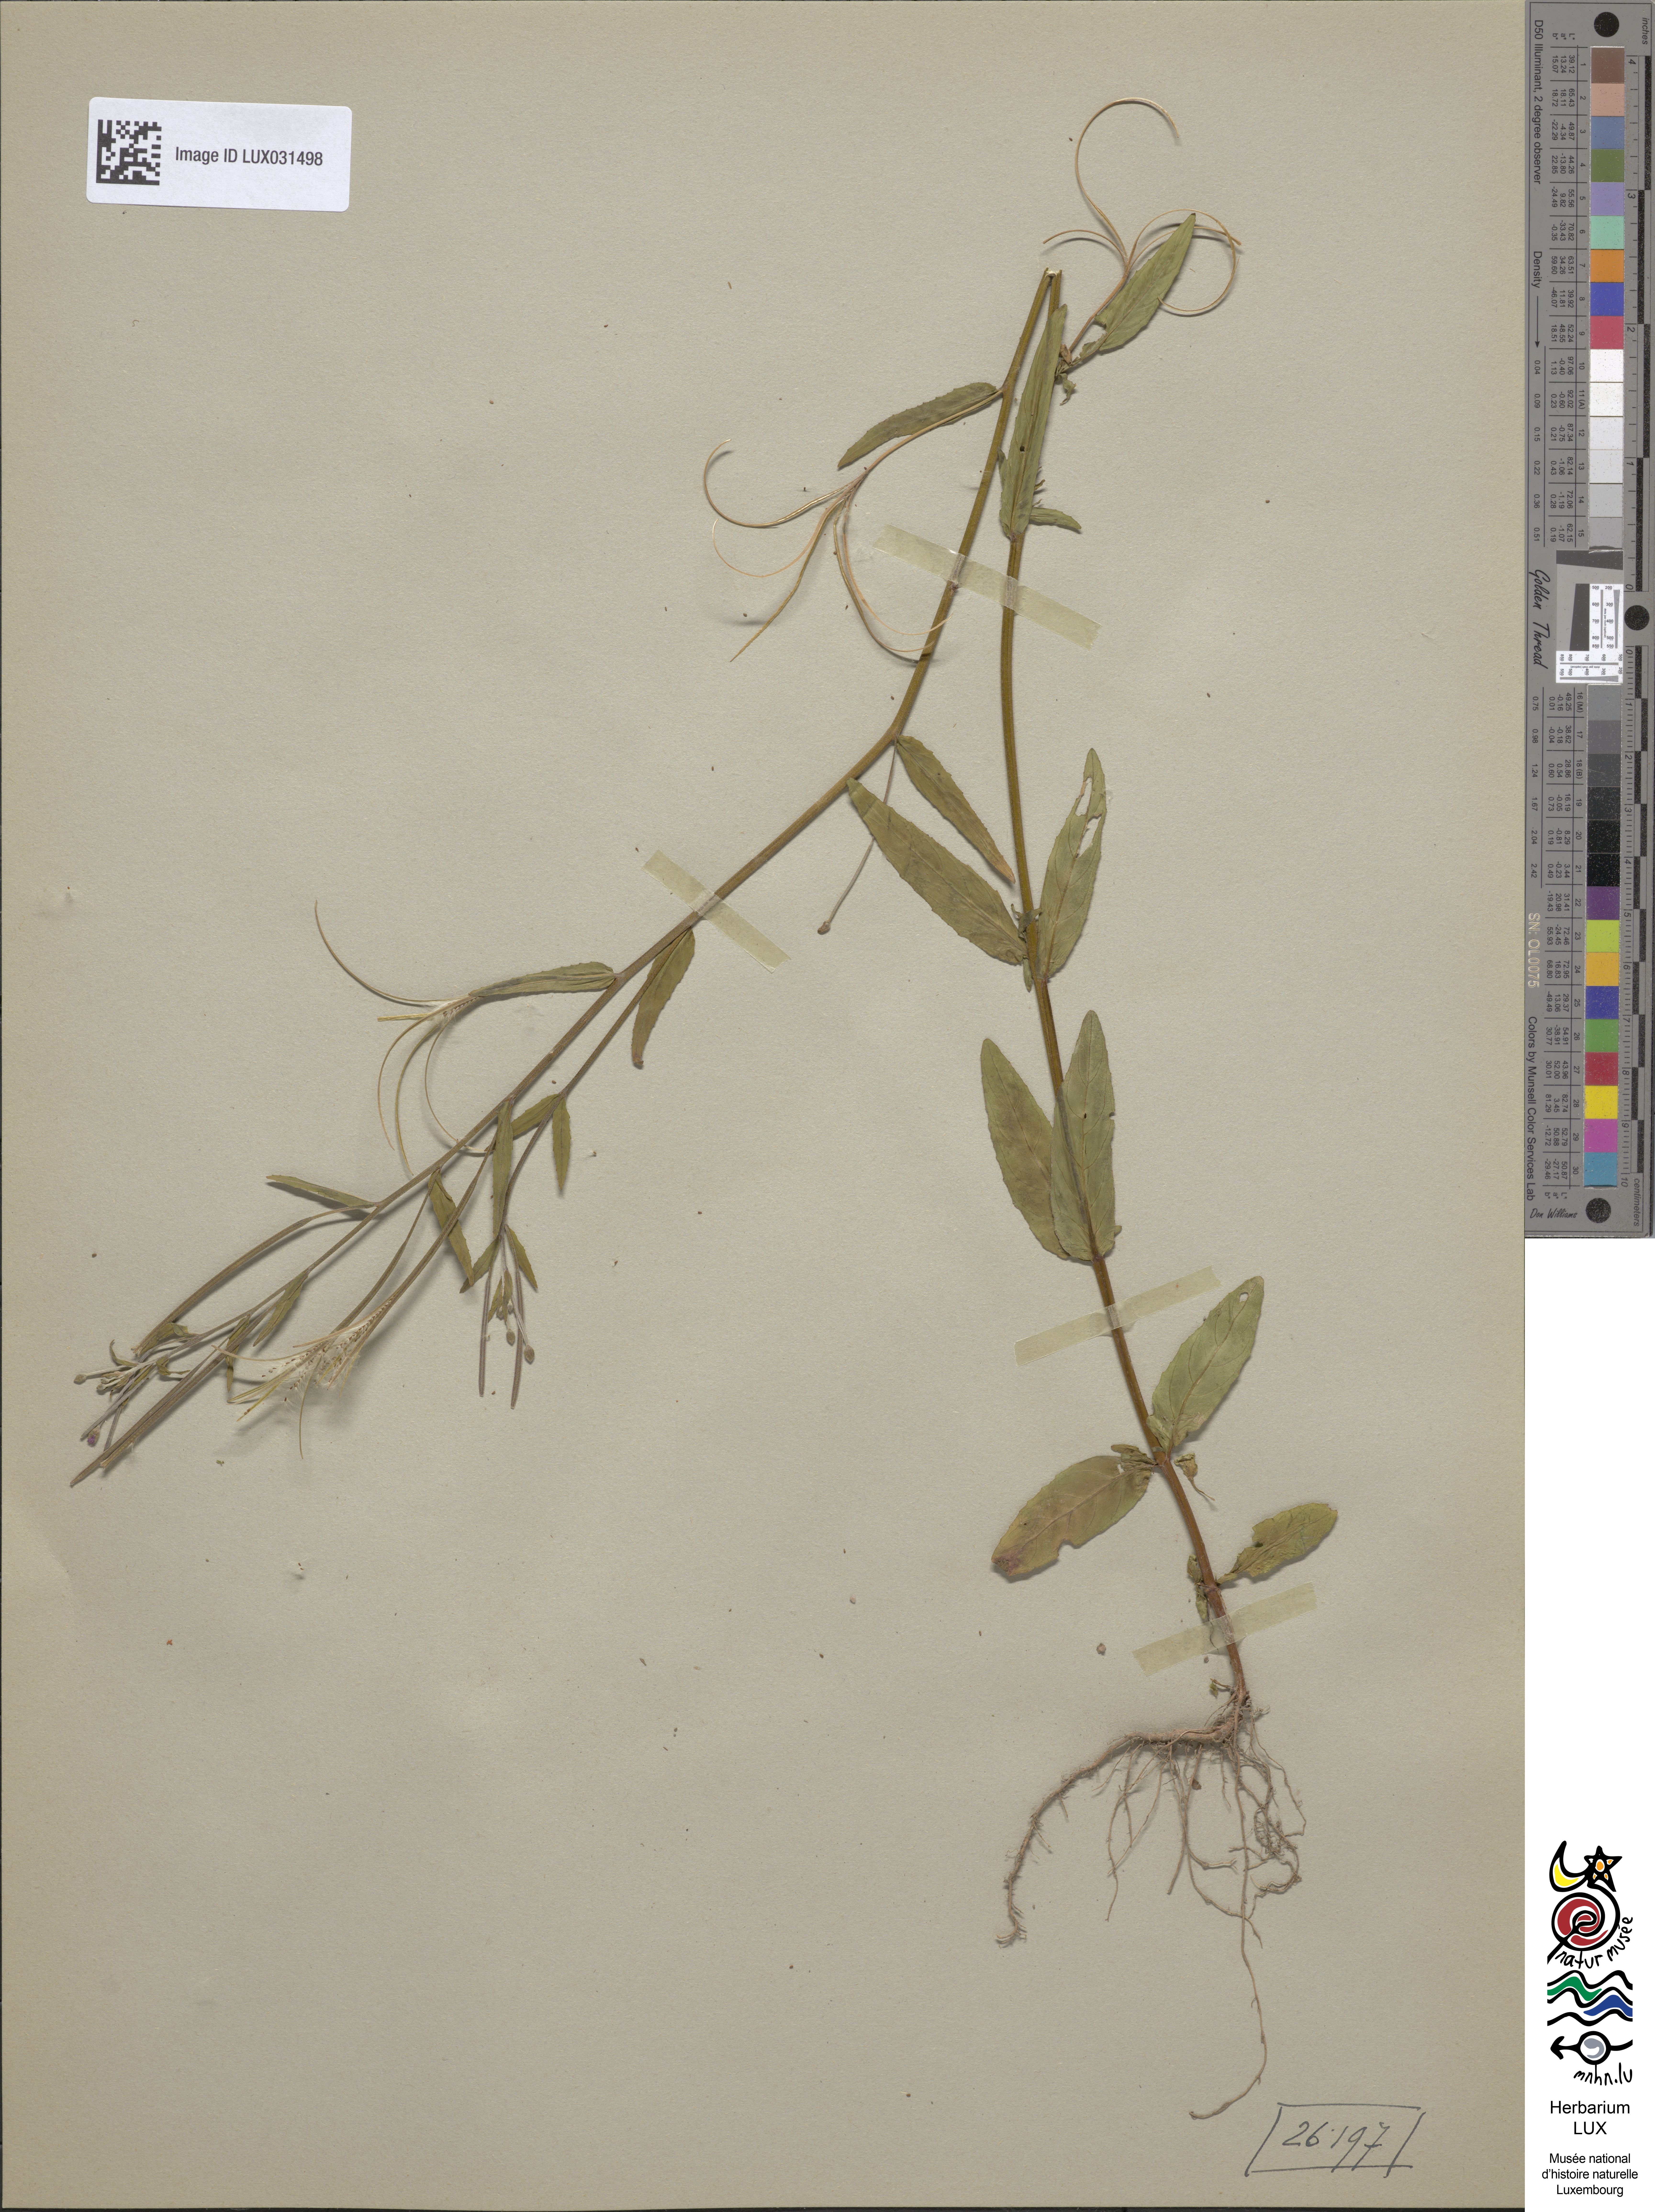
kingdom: Plantae
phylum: Tracheophyta
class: Magnoliopsida
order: Myrtales
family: Onagraceae
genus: Epilobium
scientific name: Epilobium obscurum
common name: Short-fruited willowherb
